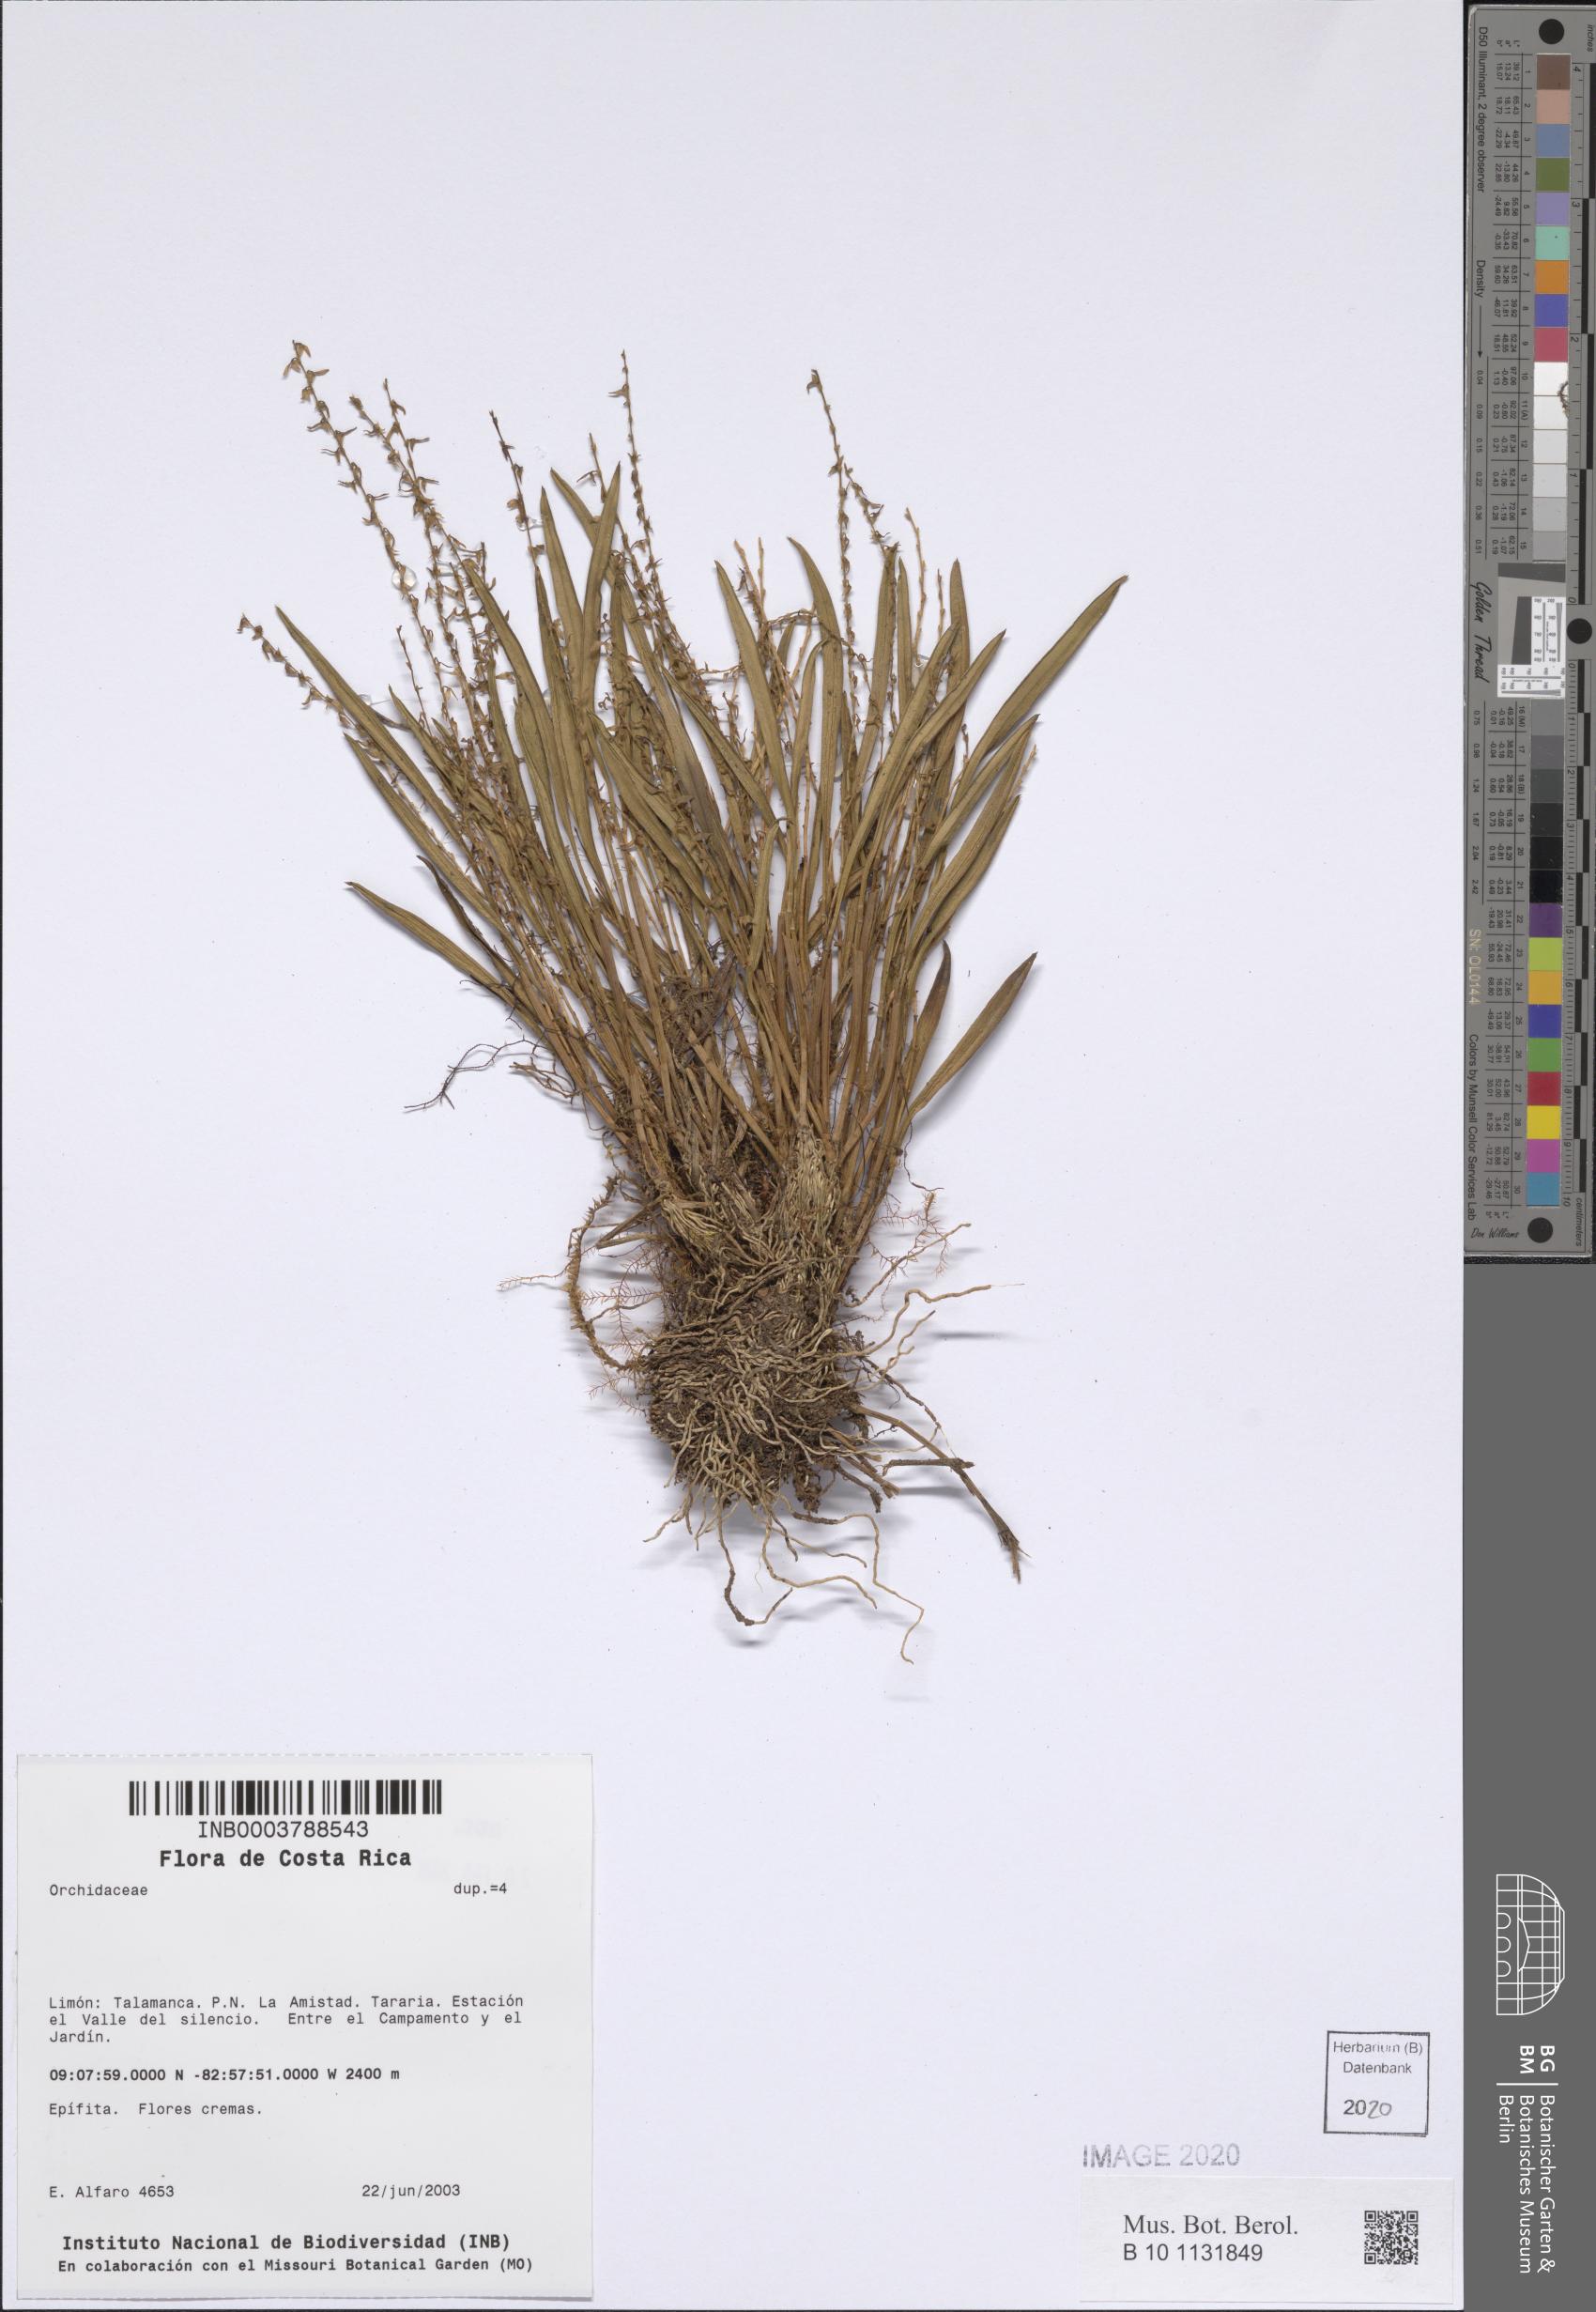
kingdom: Plantae
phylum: Tracheophyta
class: Liliopsida
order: Asparagales
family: Orchidaceae
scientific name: Orchidaceae
